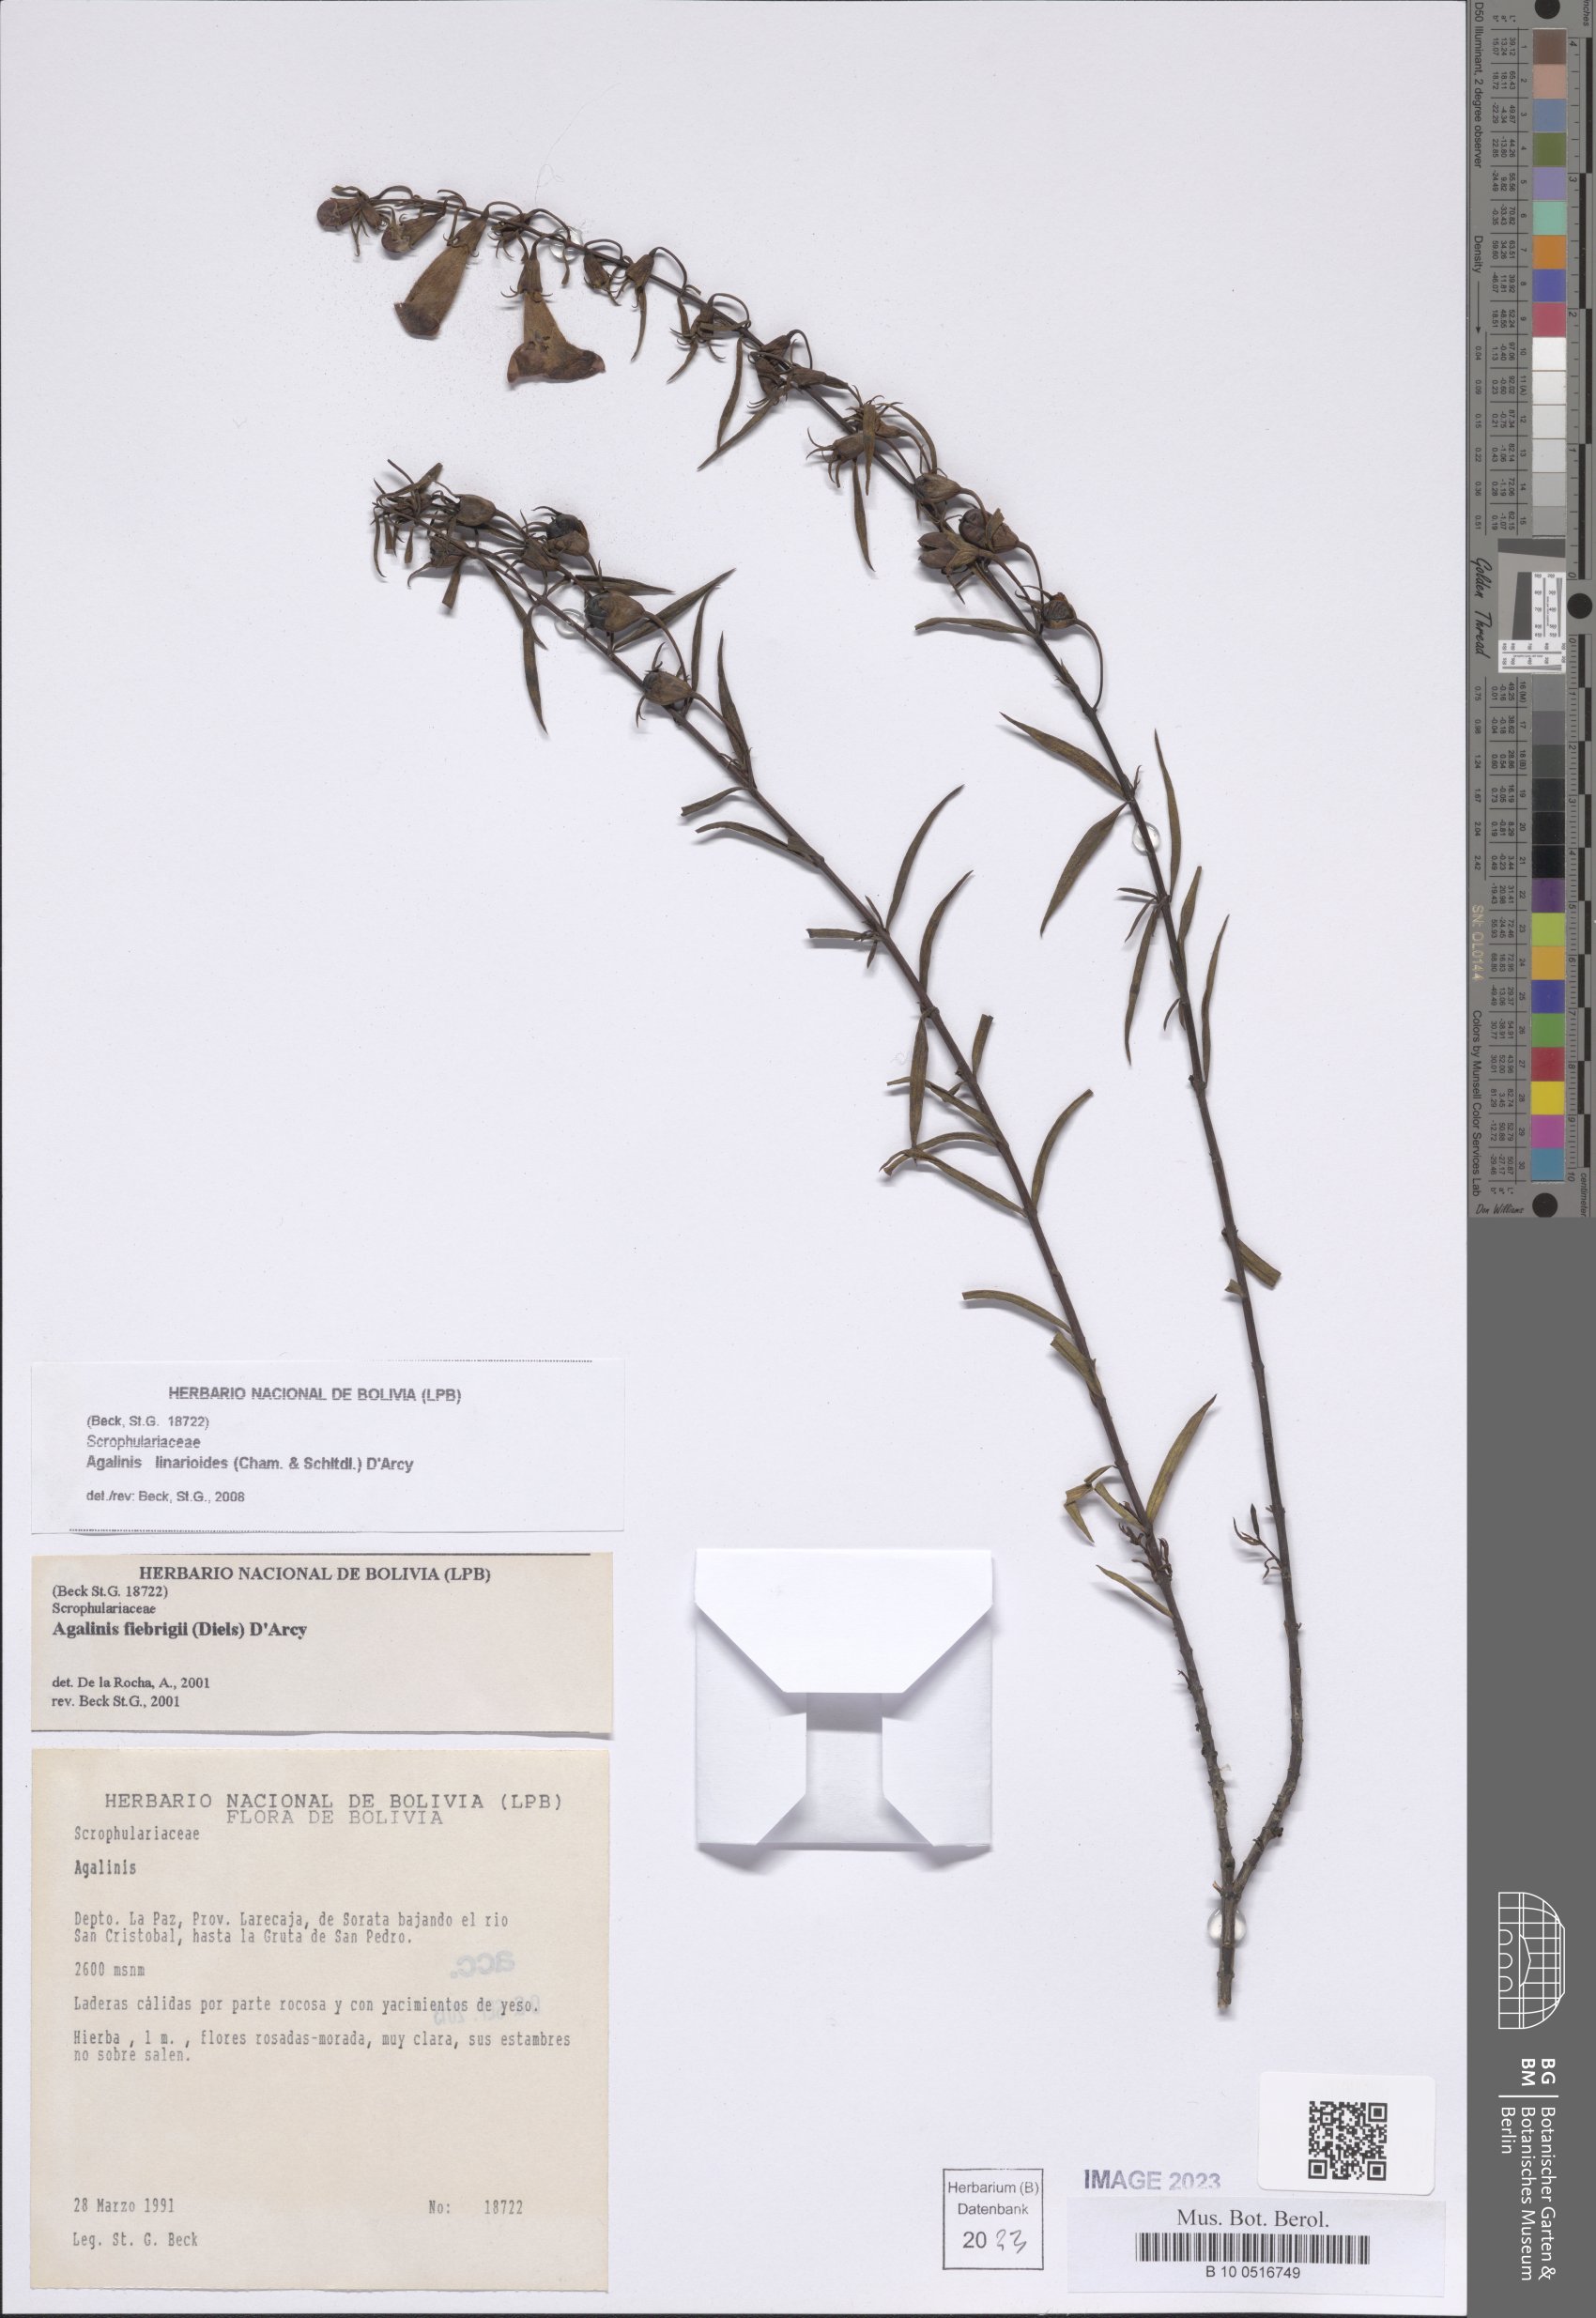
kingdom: Plantae
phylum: Tracheophyta
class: Magnoliopsida
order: Lamiales
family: Orobanchaceae
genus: Agalinis
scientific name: Agalinis linarioides
